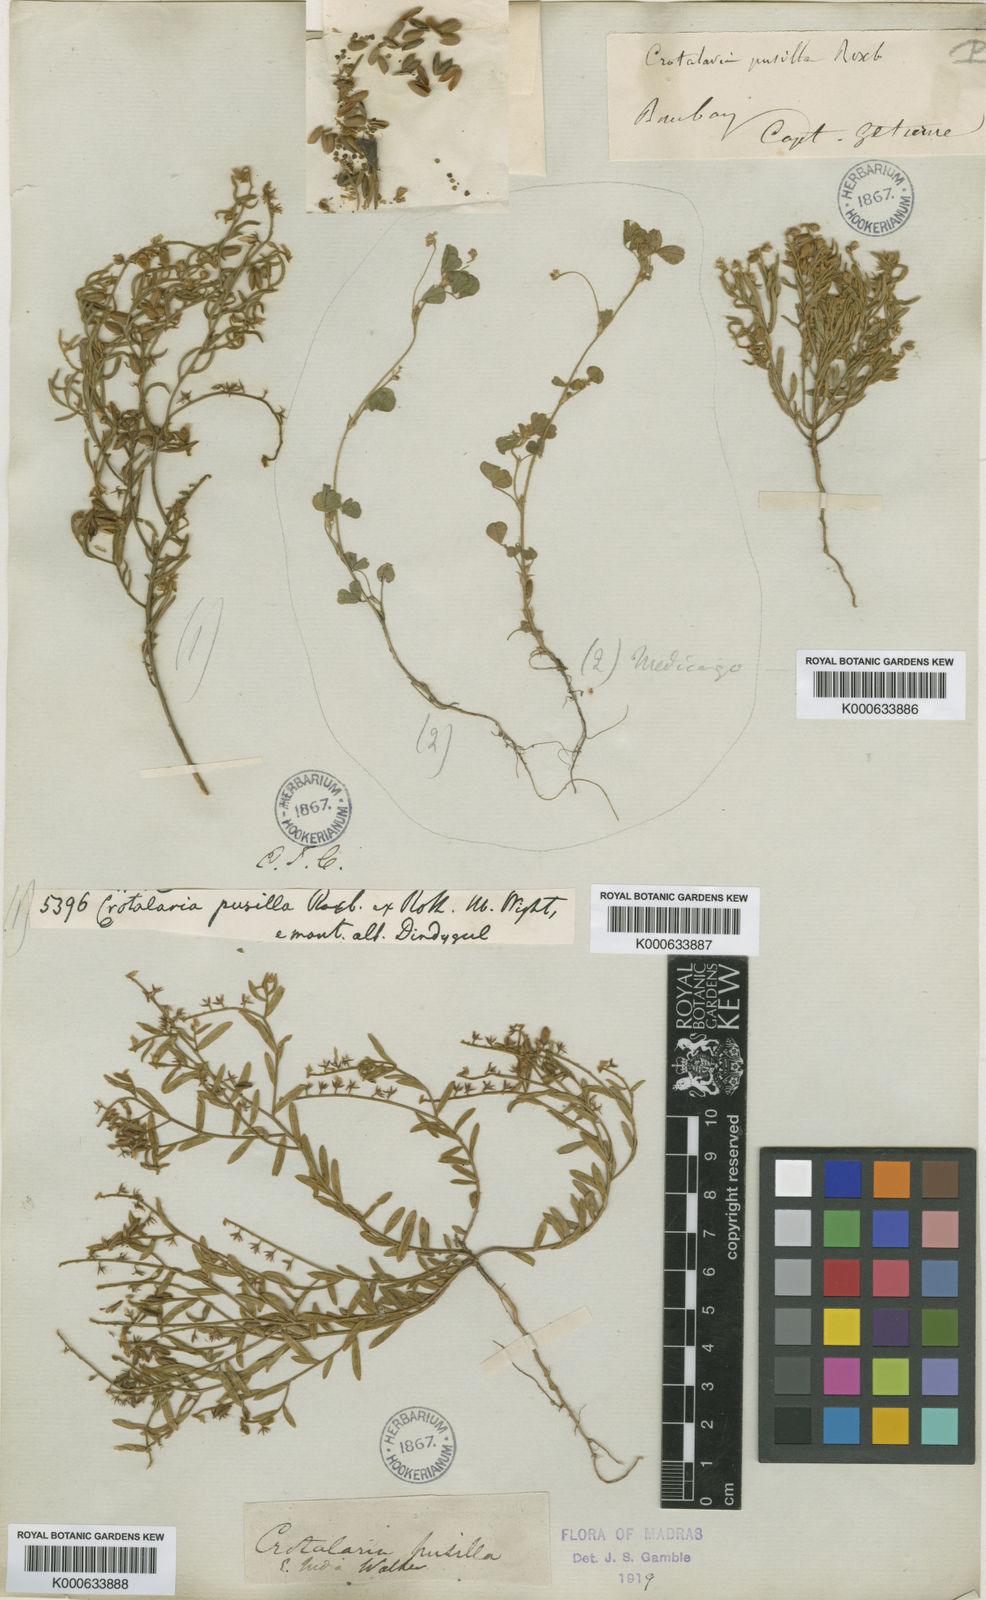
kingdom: Plantae
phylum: Tracheophyta
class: Magnoliopsida
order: Fabales
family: Fabaceae
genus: Crotalaria
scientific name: Crotalaria evolvuloides
